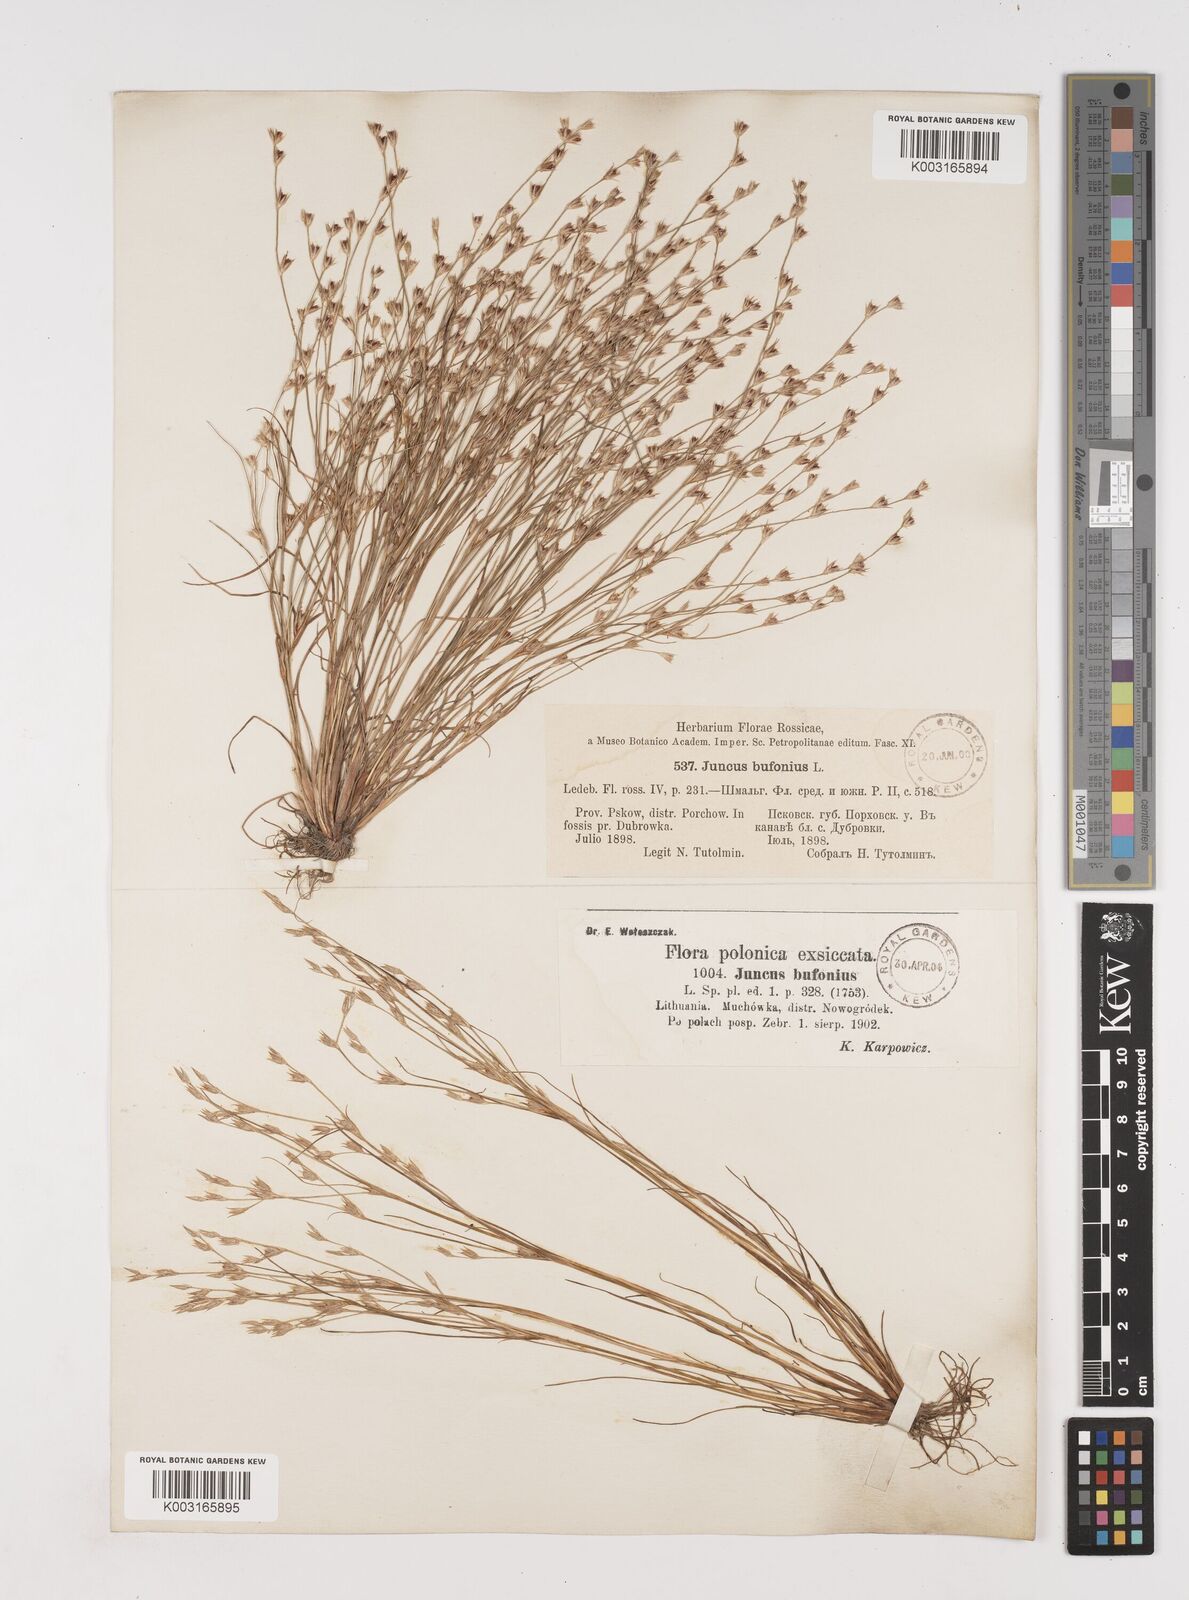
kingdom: Plantae
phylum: Tracheophyta
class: Liliopsida
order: Poales
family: Juncaceae
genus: Juncus
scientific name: Juncus bufonius
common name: Toad rush
